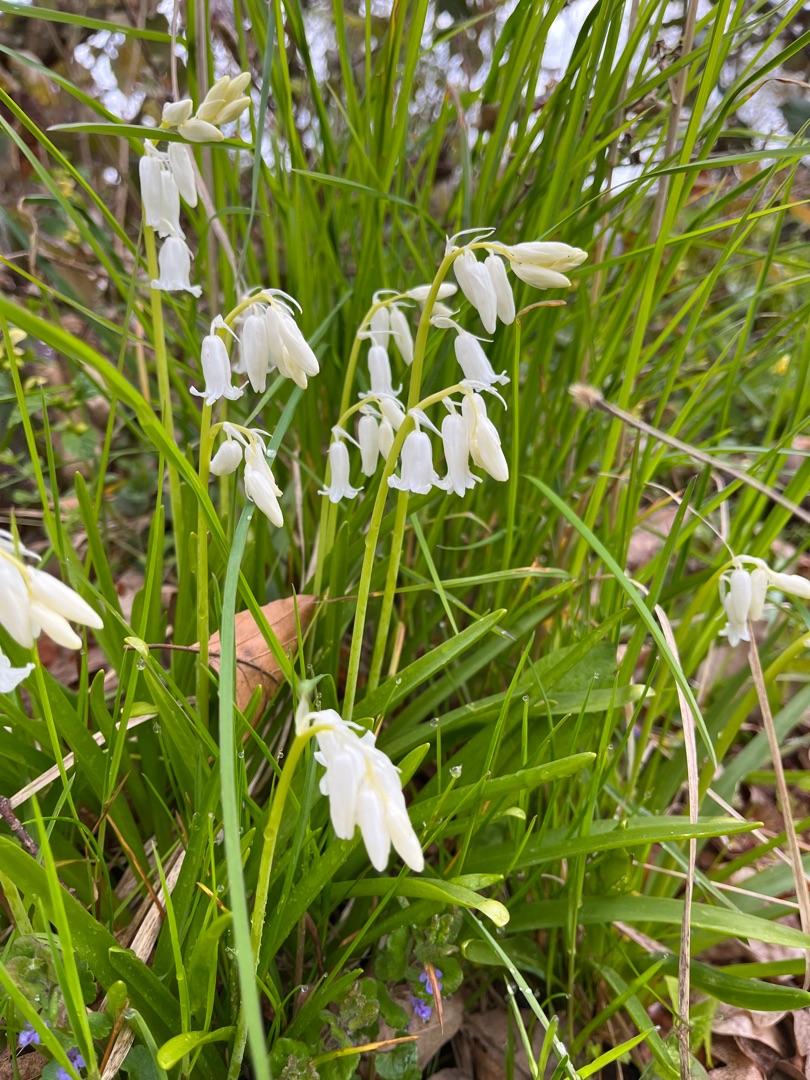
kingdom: Plantae
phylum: Tracheophyta
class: Liliopsida
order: Asparagales
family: Asparagaceae
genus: Hyacinthoides
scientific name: Hyacinthoides non-scripta
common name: Klokke-skilla
